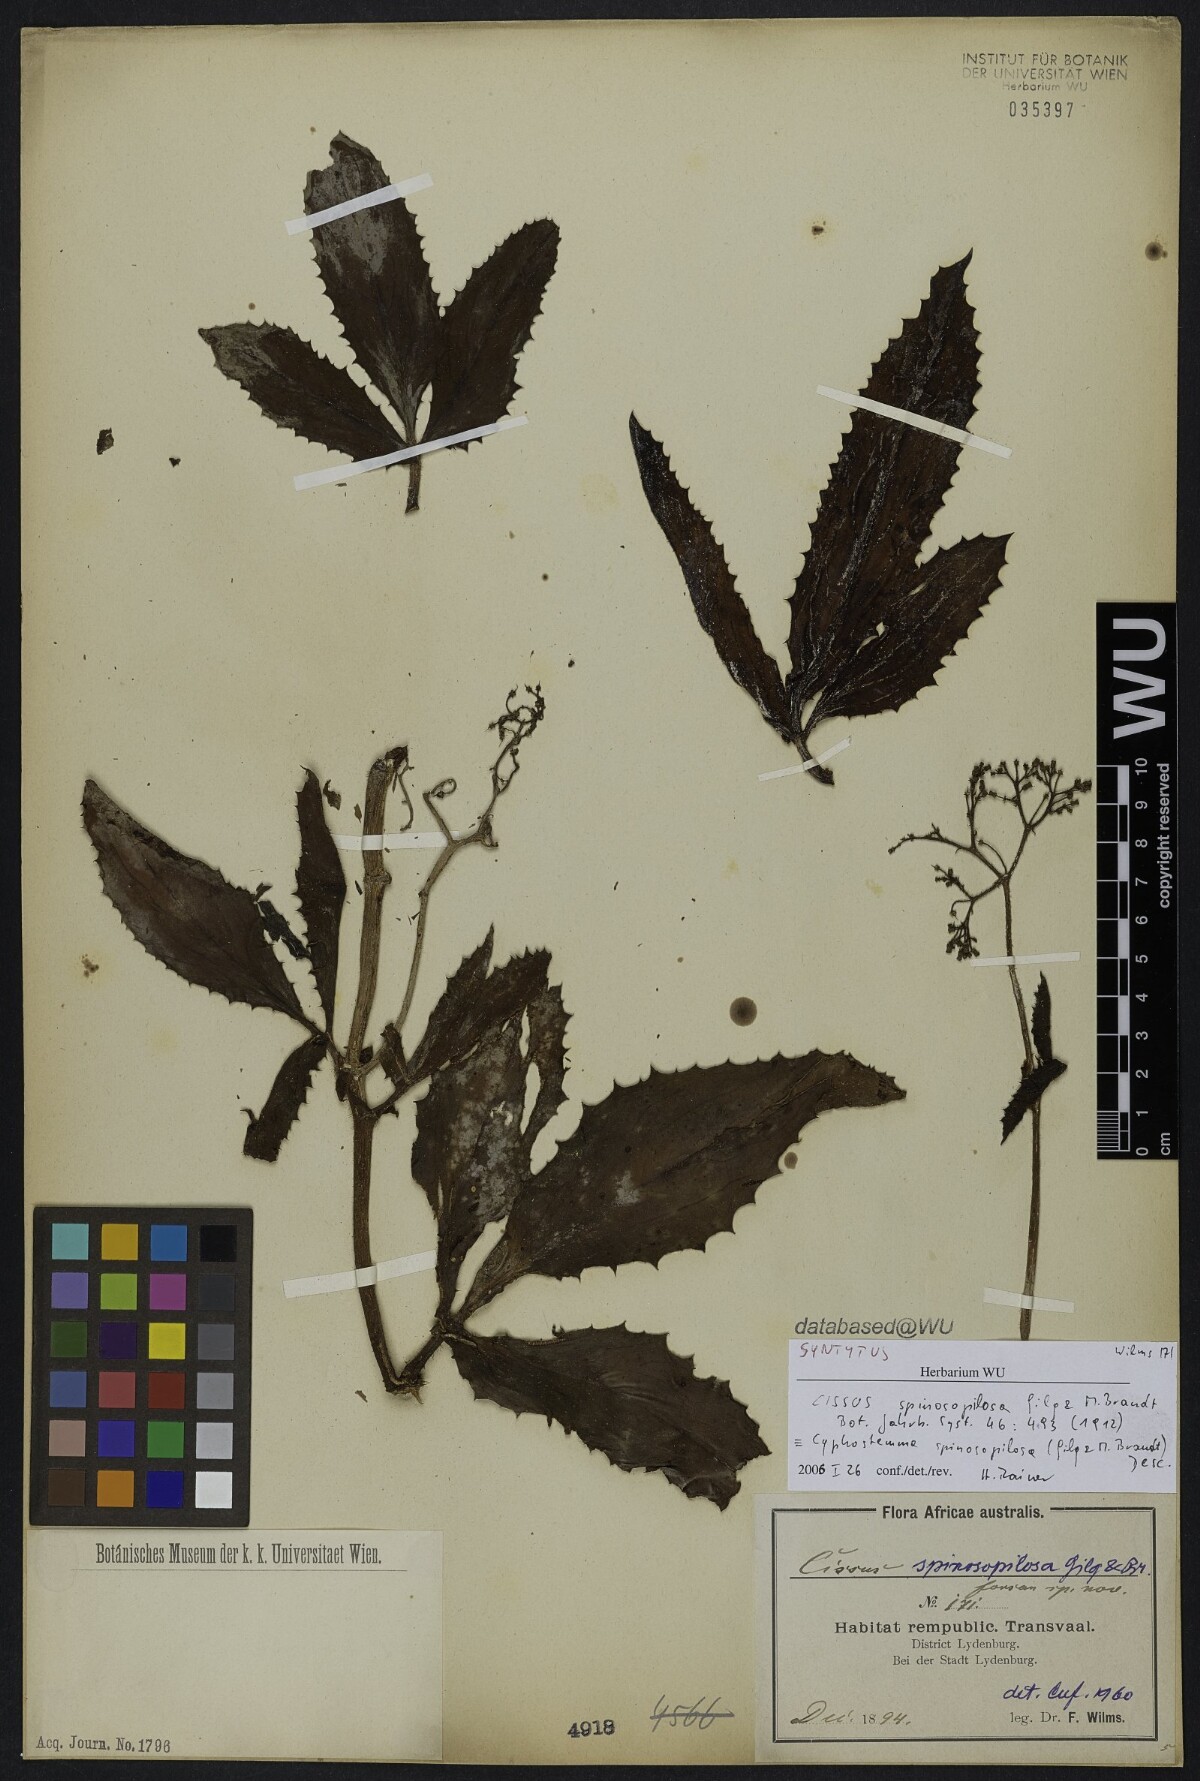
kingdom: Plantae
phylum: Tracheophyta
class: Magnoliopsida
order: Vitales
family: Vitaceae
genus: Cyphostemma
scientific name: Cyphostemma spinosopilosum
